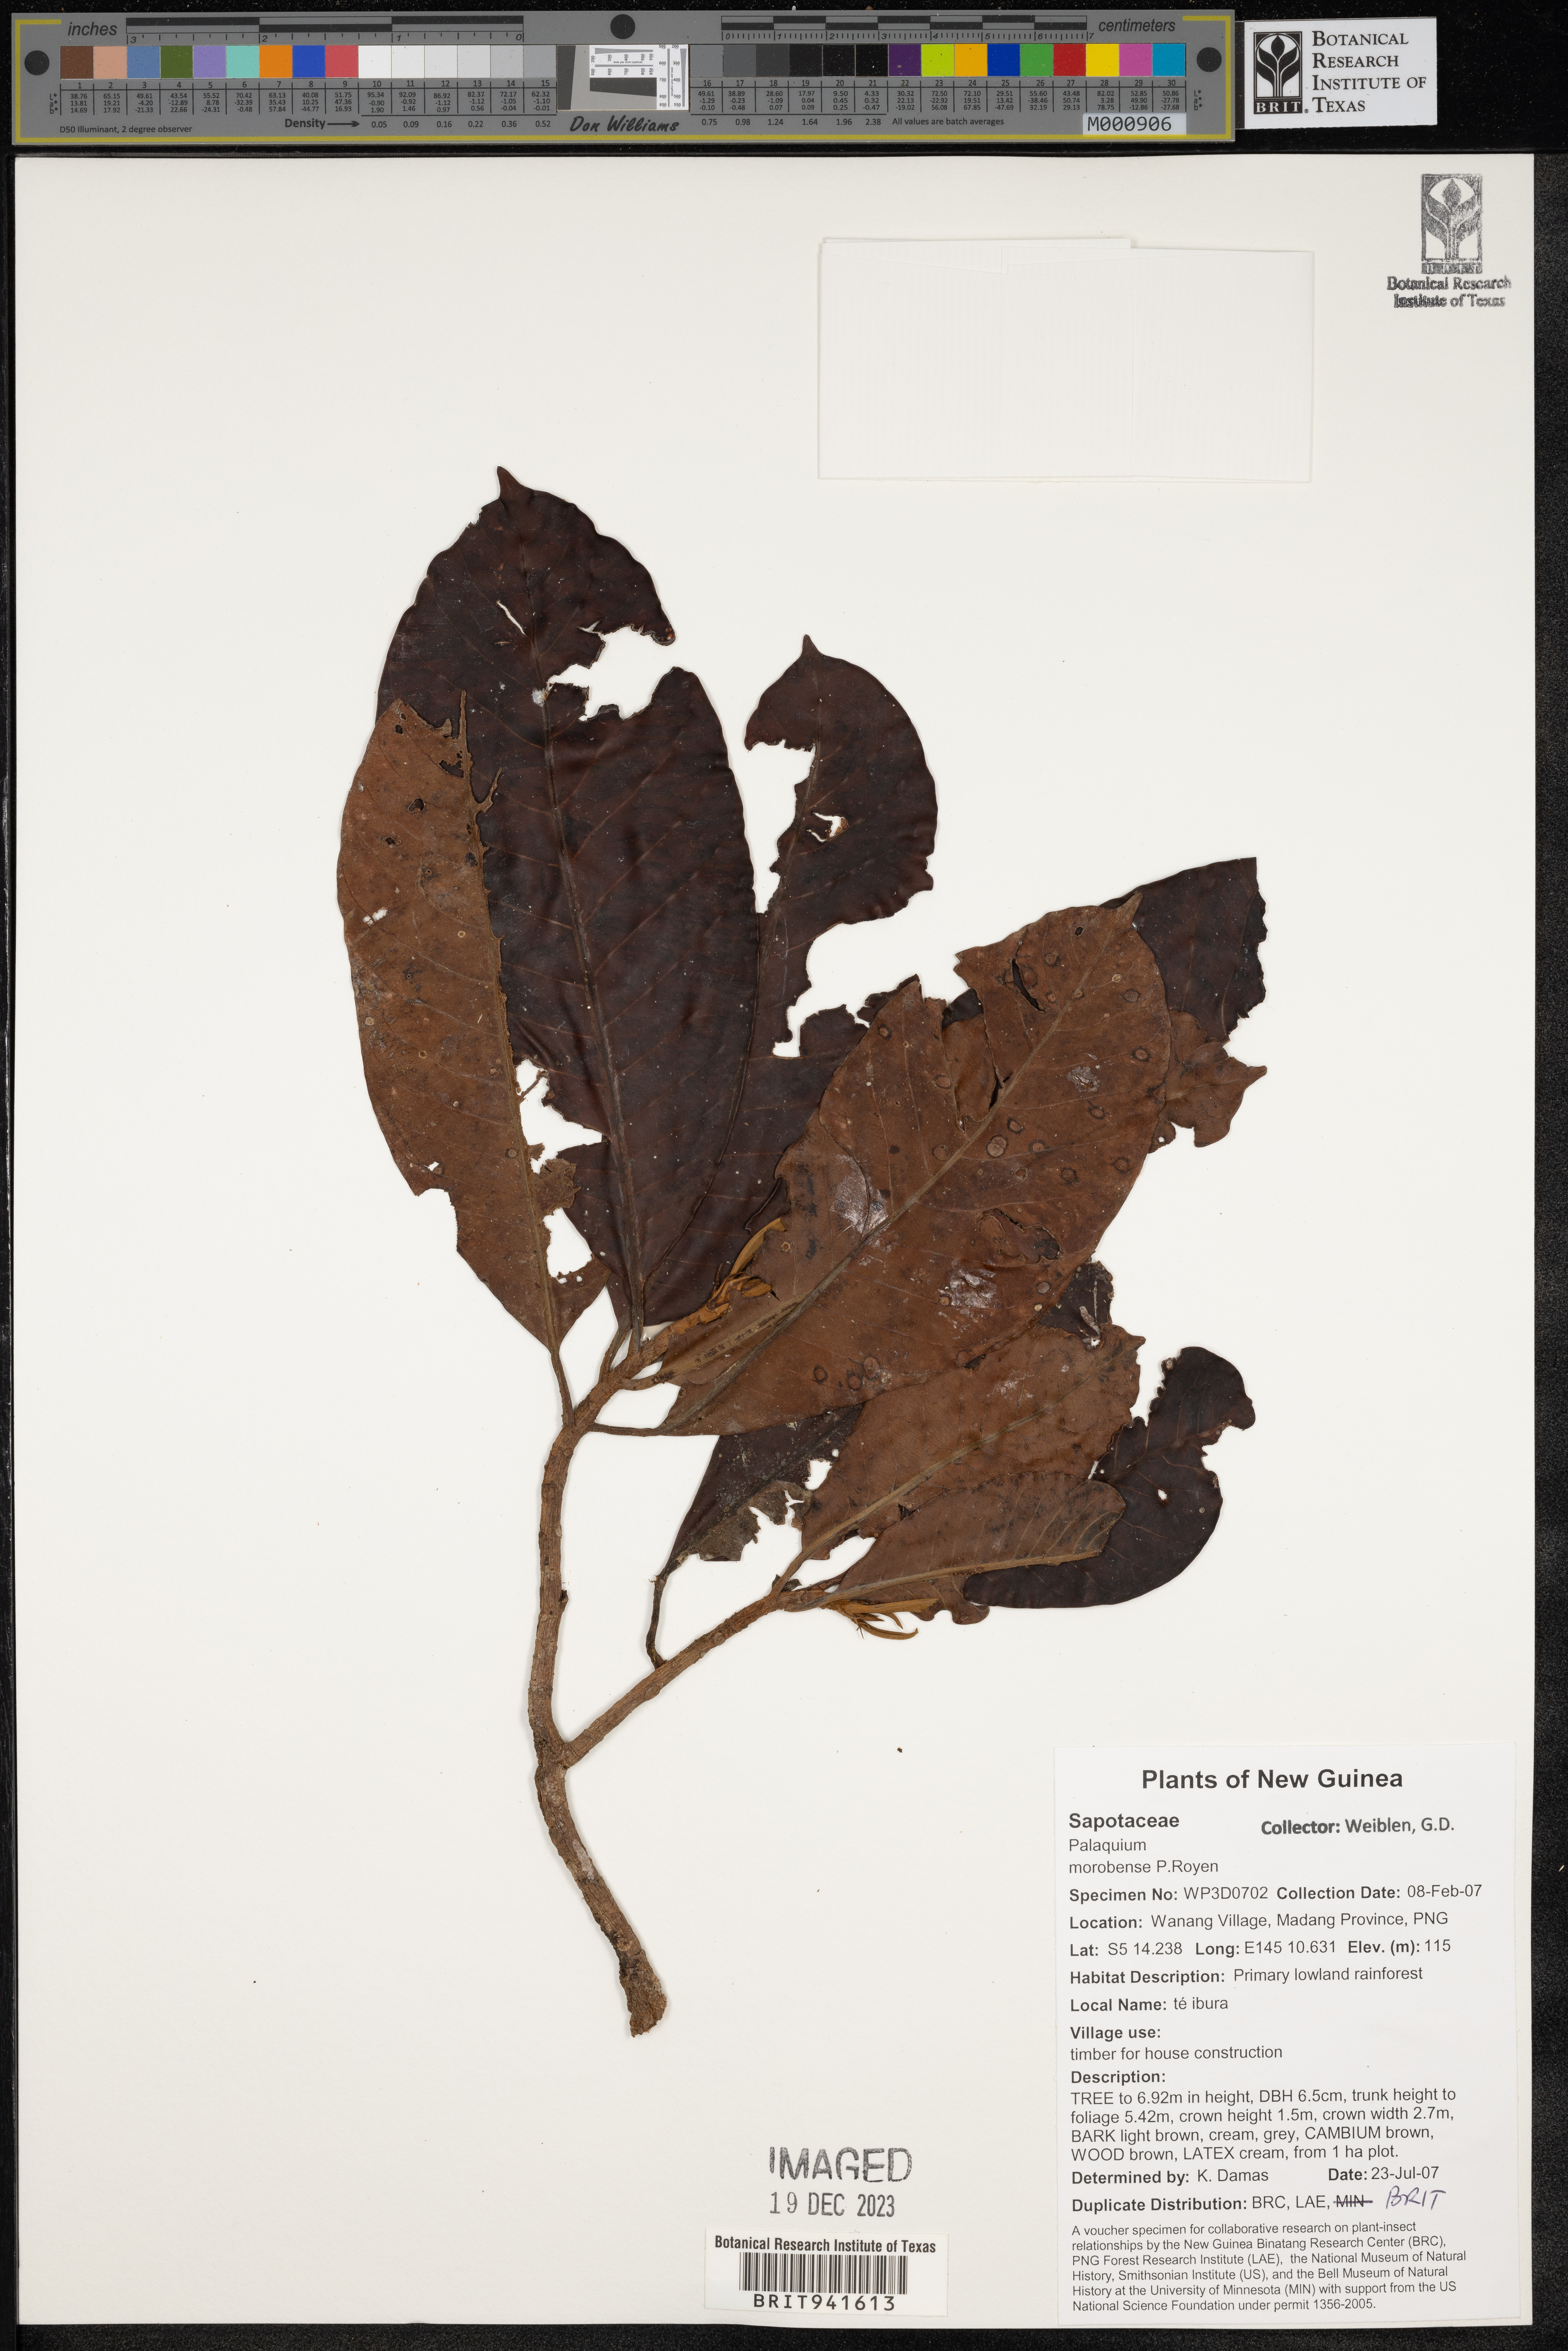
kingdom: Plantae
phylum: Tracheophyta
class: Magnoliopsida
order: Ericales
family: Sapotaceae
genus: Palaquium
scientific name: Palaquium
